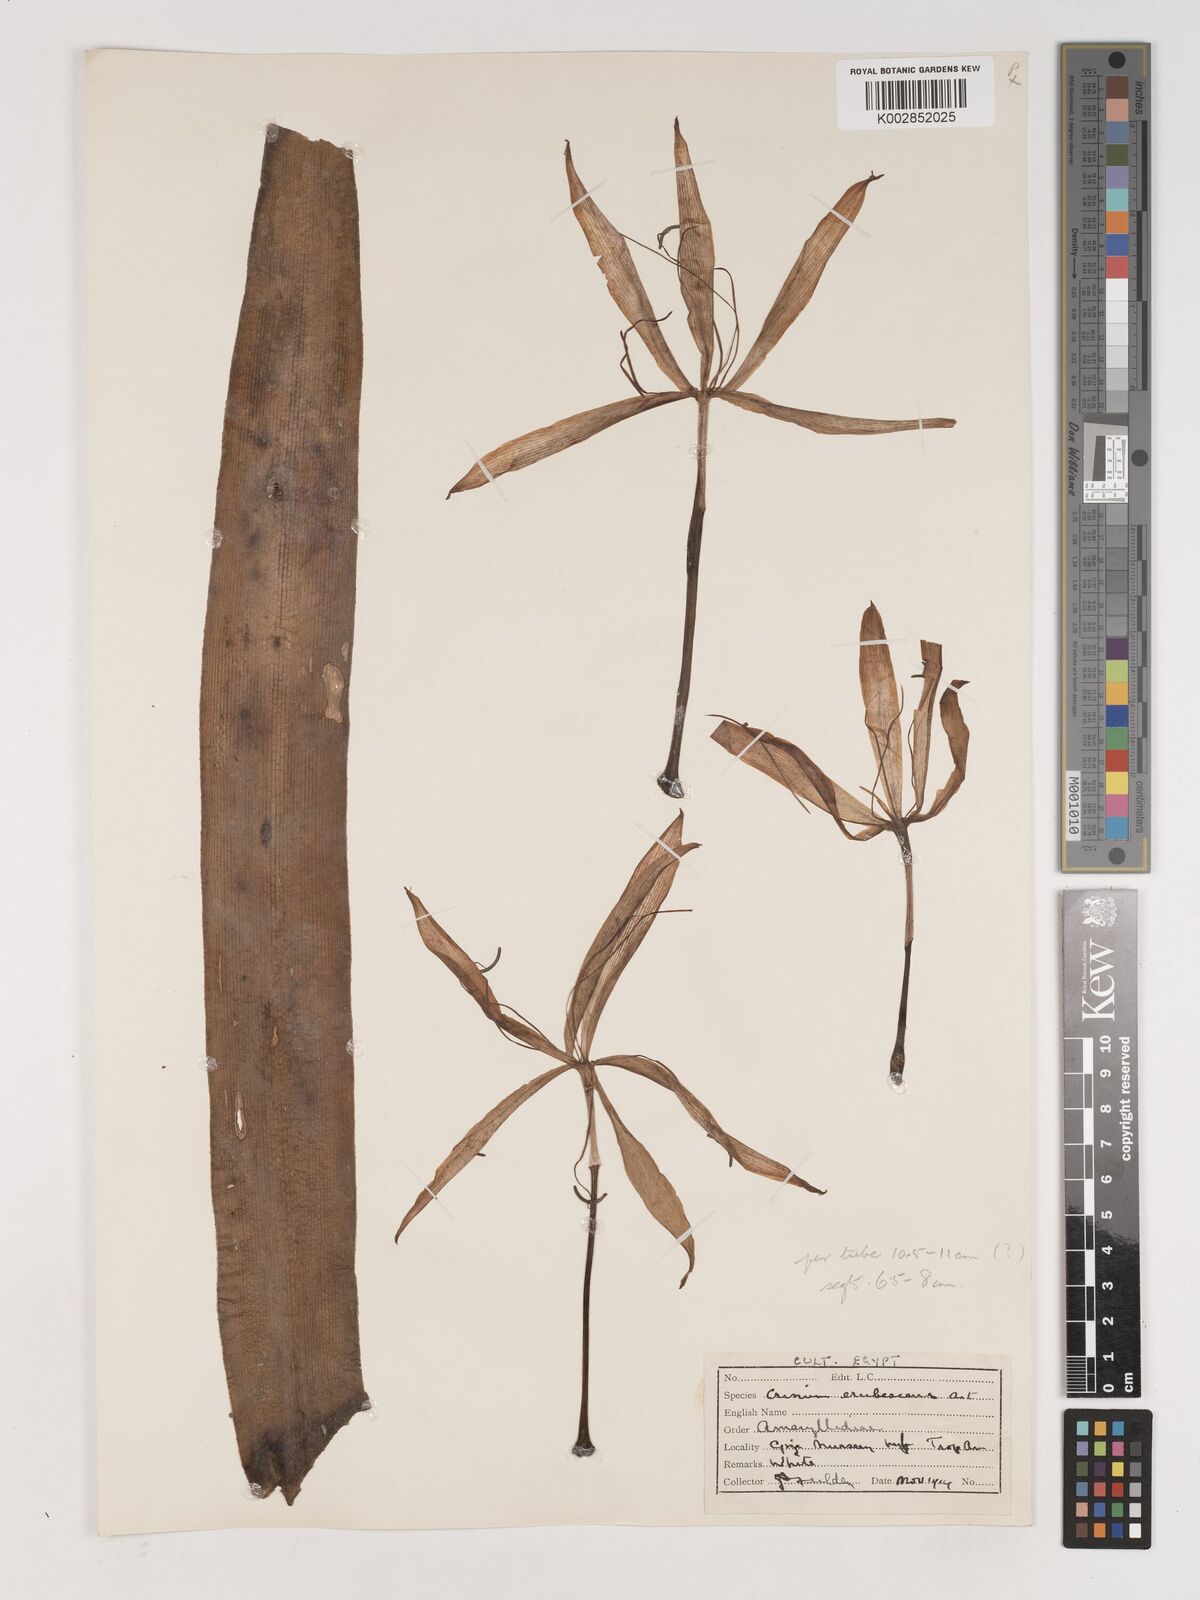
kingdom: Plantae
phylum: Tracheophyta
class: Liliopsida
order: Asparagales
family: Amaryllidaceae
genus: Crinum
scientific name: Crinum erubescens
